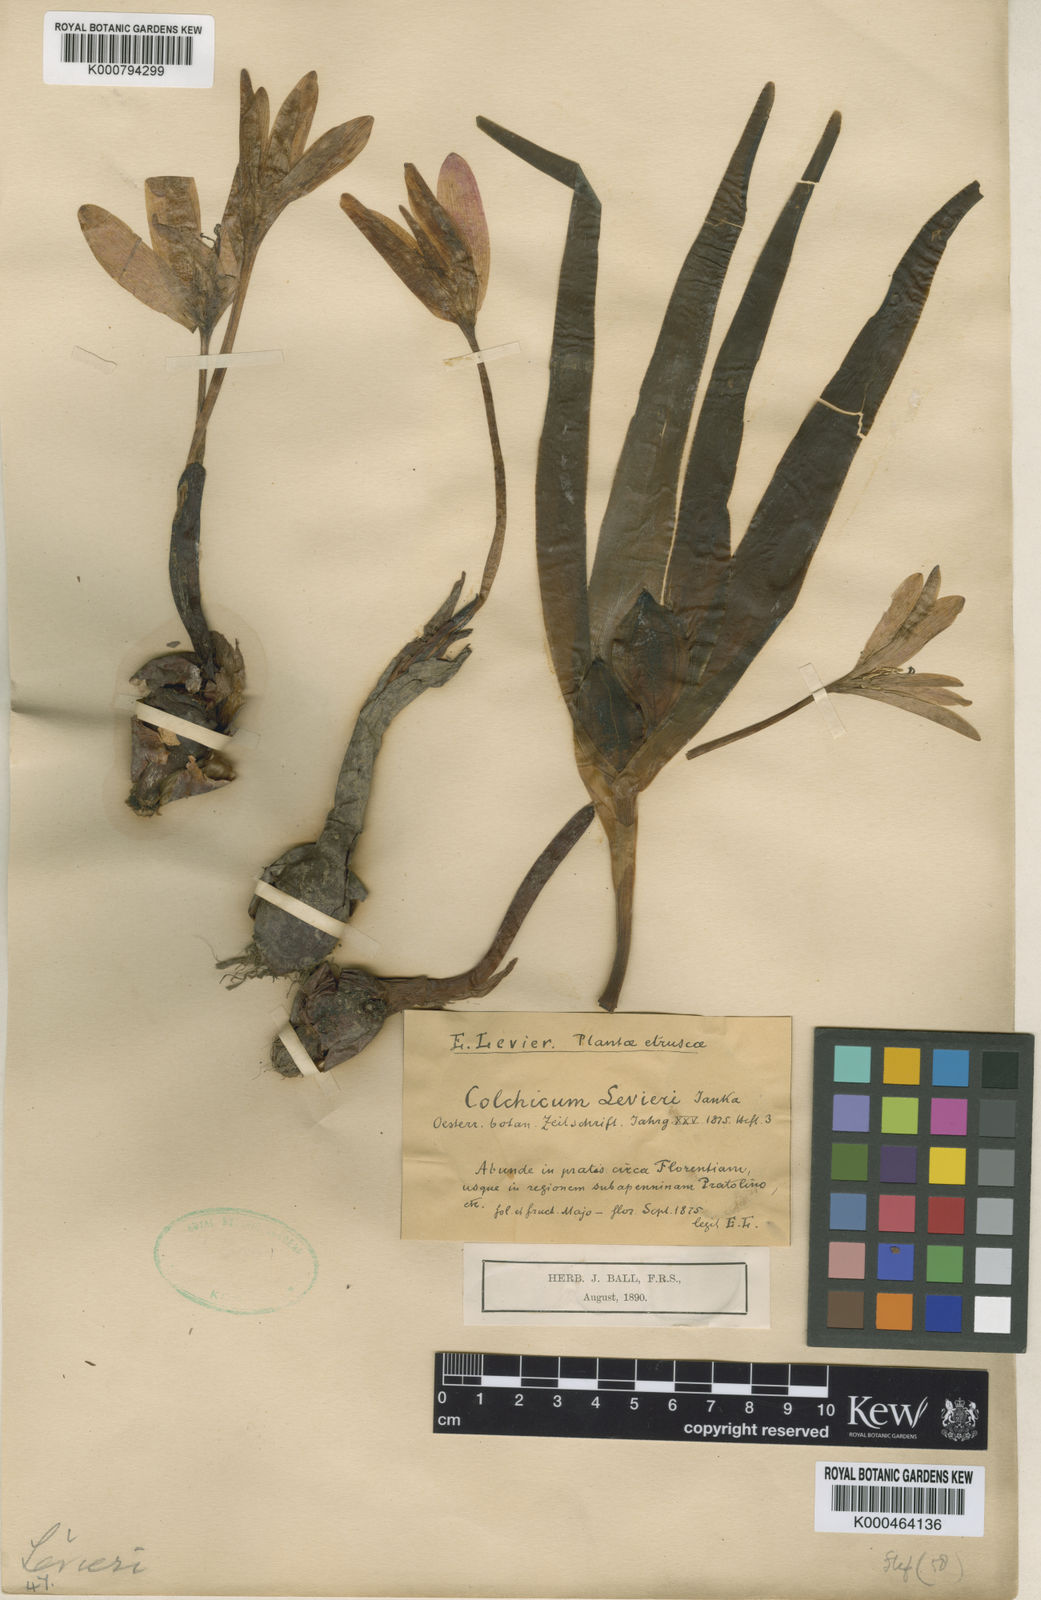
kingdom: Plantae
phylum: Tracheophyta
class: Liliopsida
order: Liliales
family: Colchicaceae
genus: Colchicum
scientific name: Colchicum lusitanum
